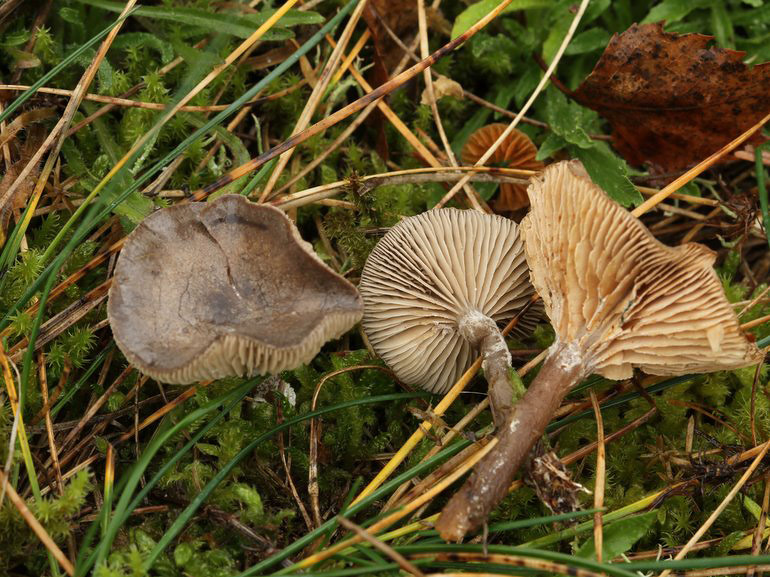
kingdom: Fungi
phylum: Basidiomycota
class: Agaricomycetes
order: Agaricales
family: Entolomataceae
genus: Clitopilus
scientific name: Clitopilus caelatus
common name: gråbrun troldhat
